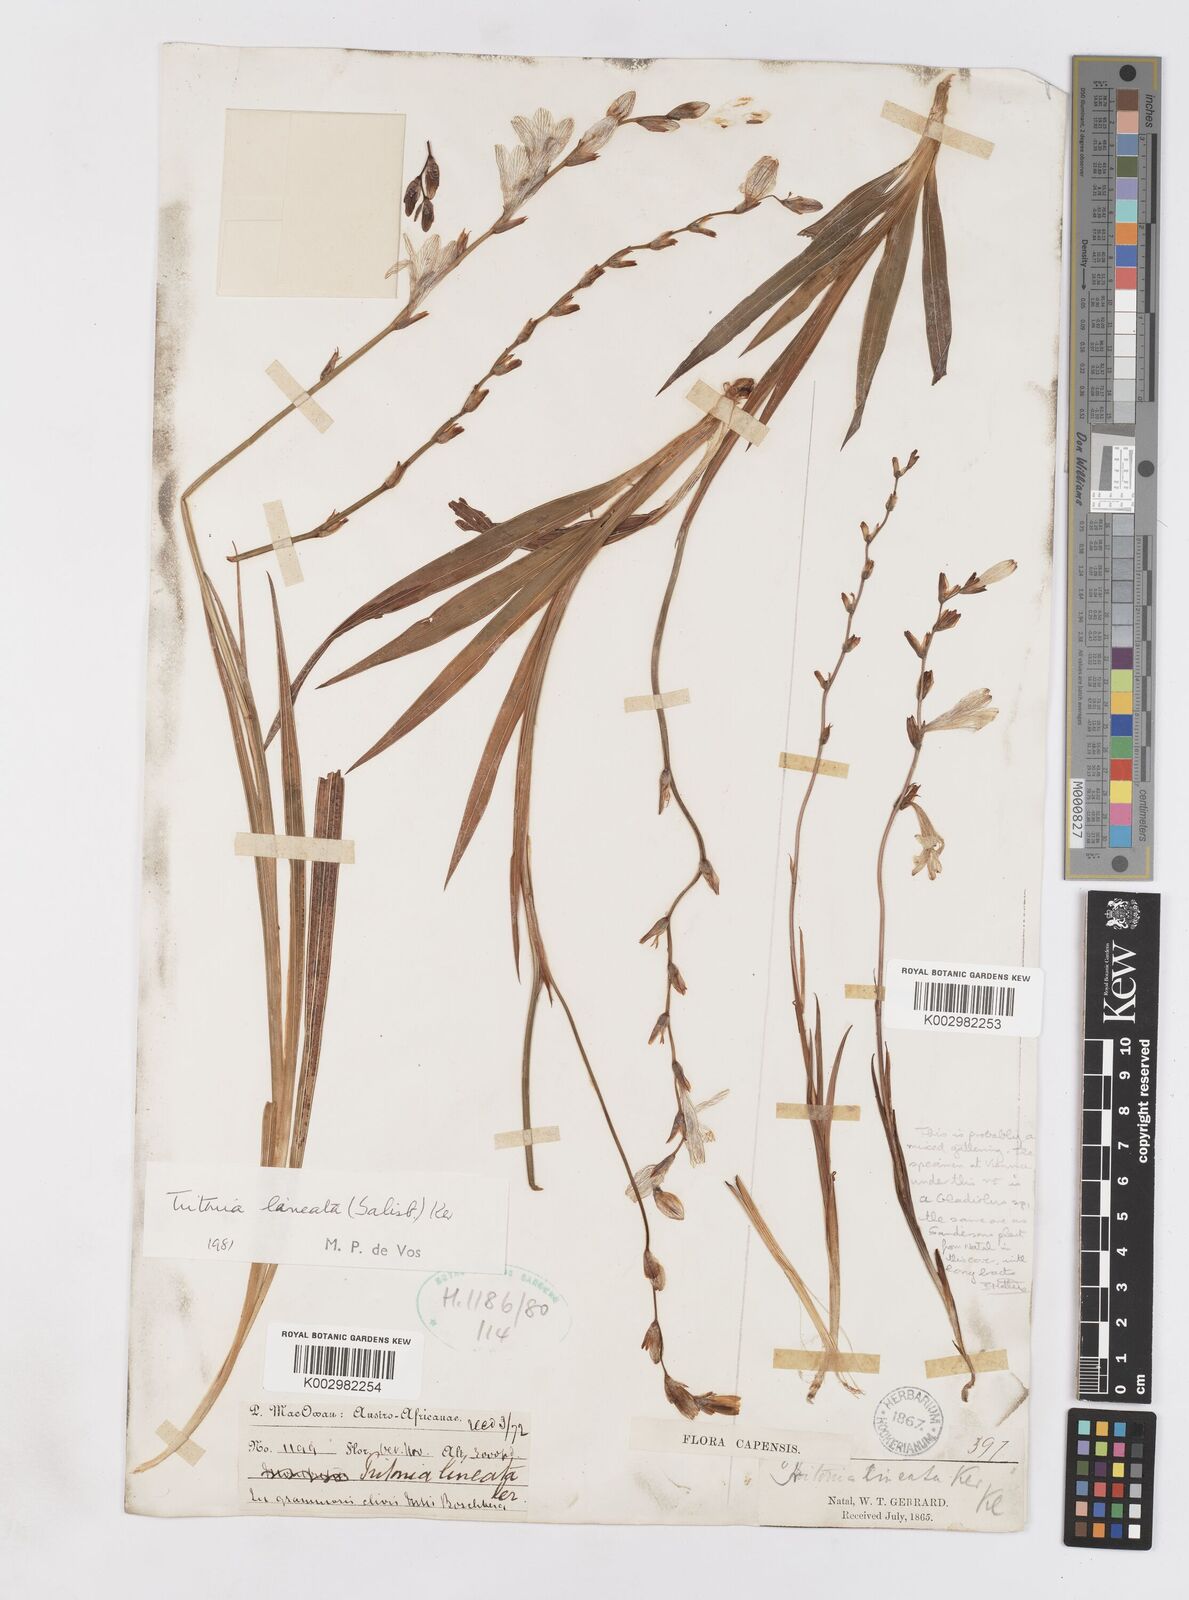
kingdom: Plantae
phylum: Tracheophyta
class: Liliopsida
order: Asparagales
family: Iridaceae
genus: Tritonia
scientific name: Tritonia gladiolaris
